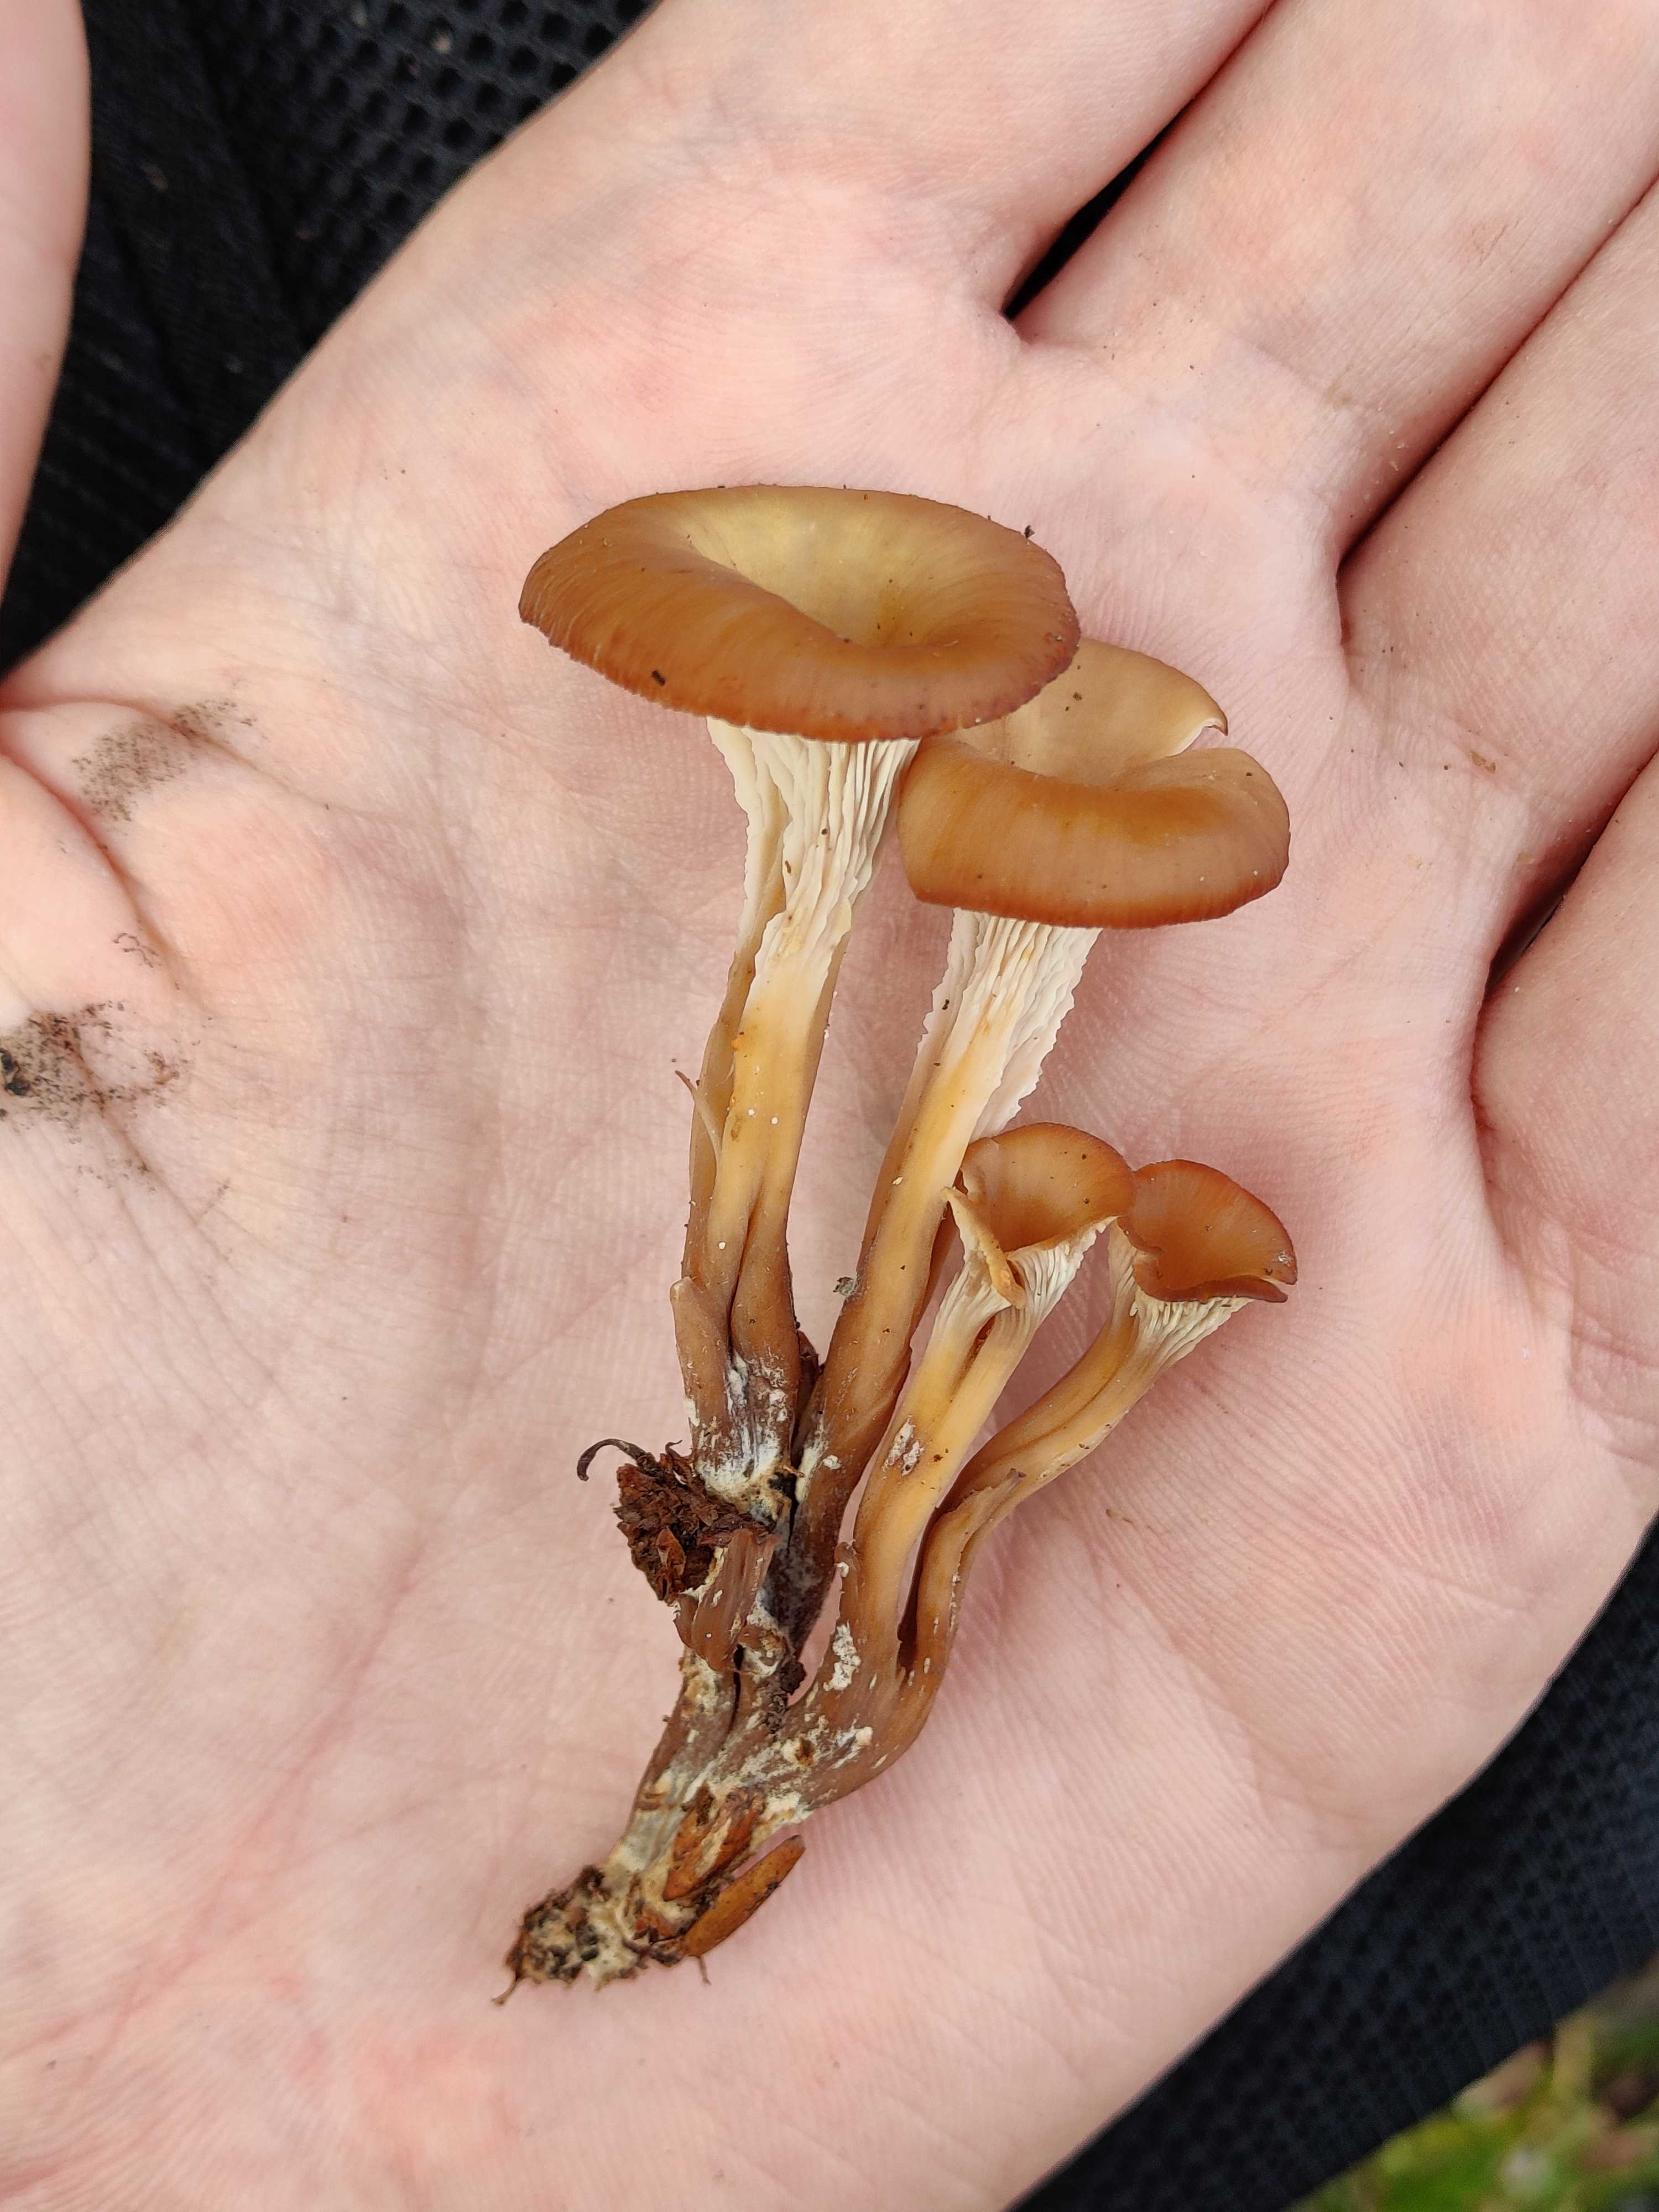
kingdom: Fungi
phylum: Basidiomycota
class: Agaricomycetes
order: Russulales
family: Auriscalpiaceae
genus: Lentinellus
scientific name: Lentinellus cochleatus
